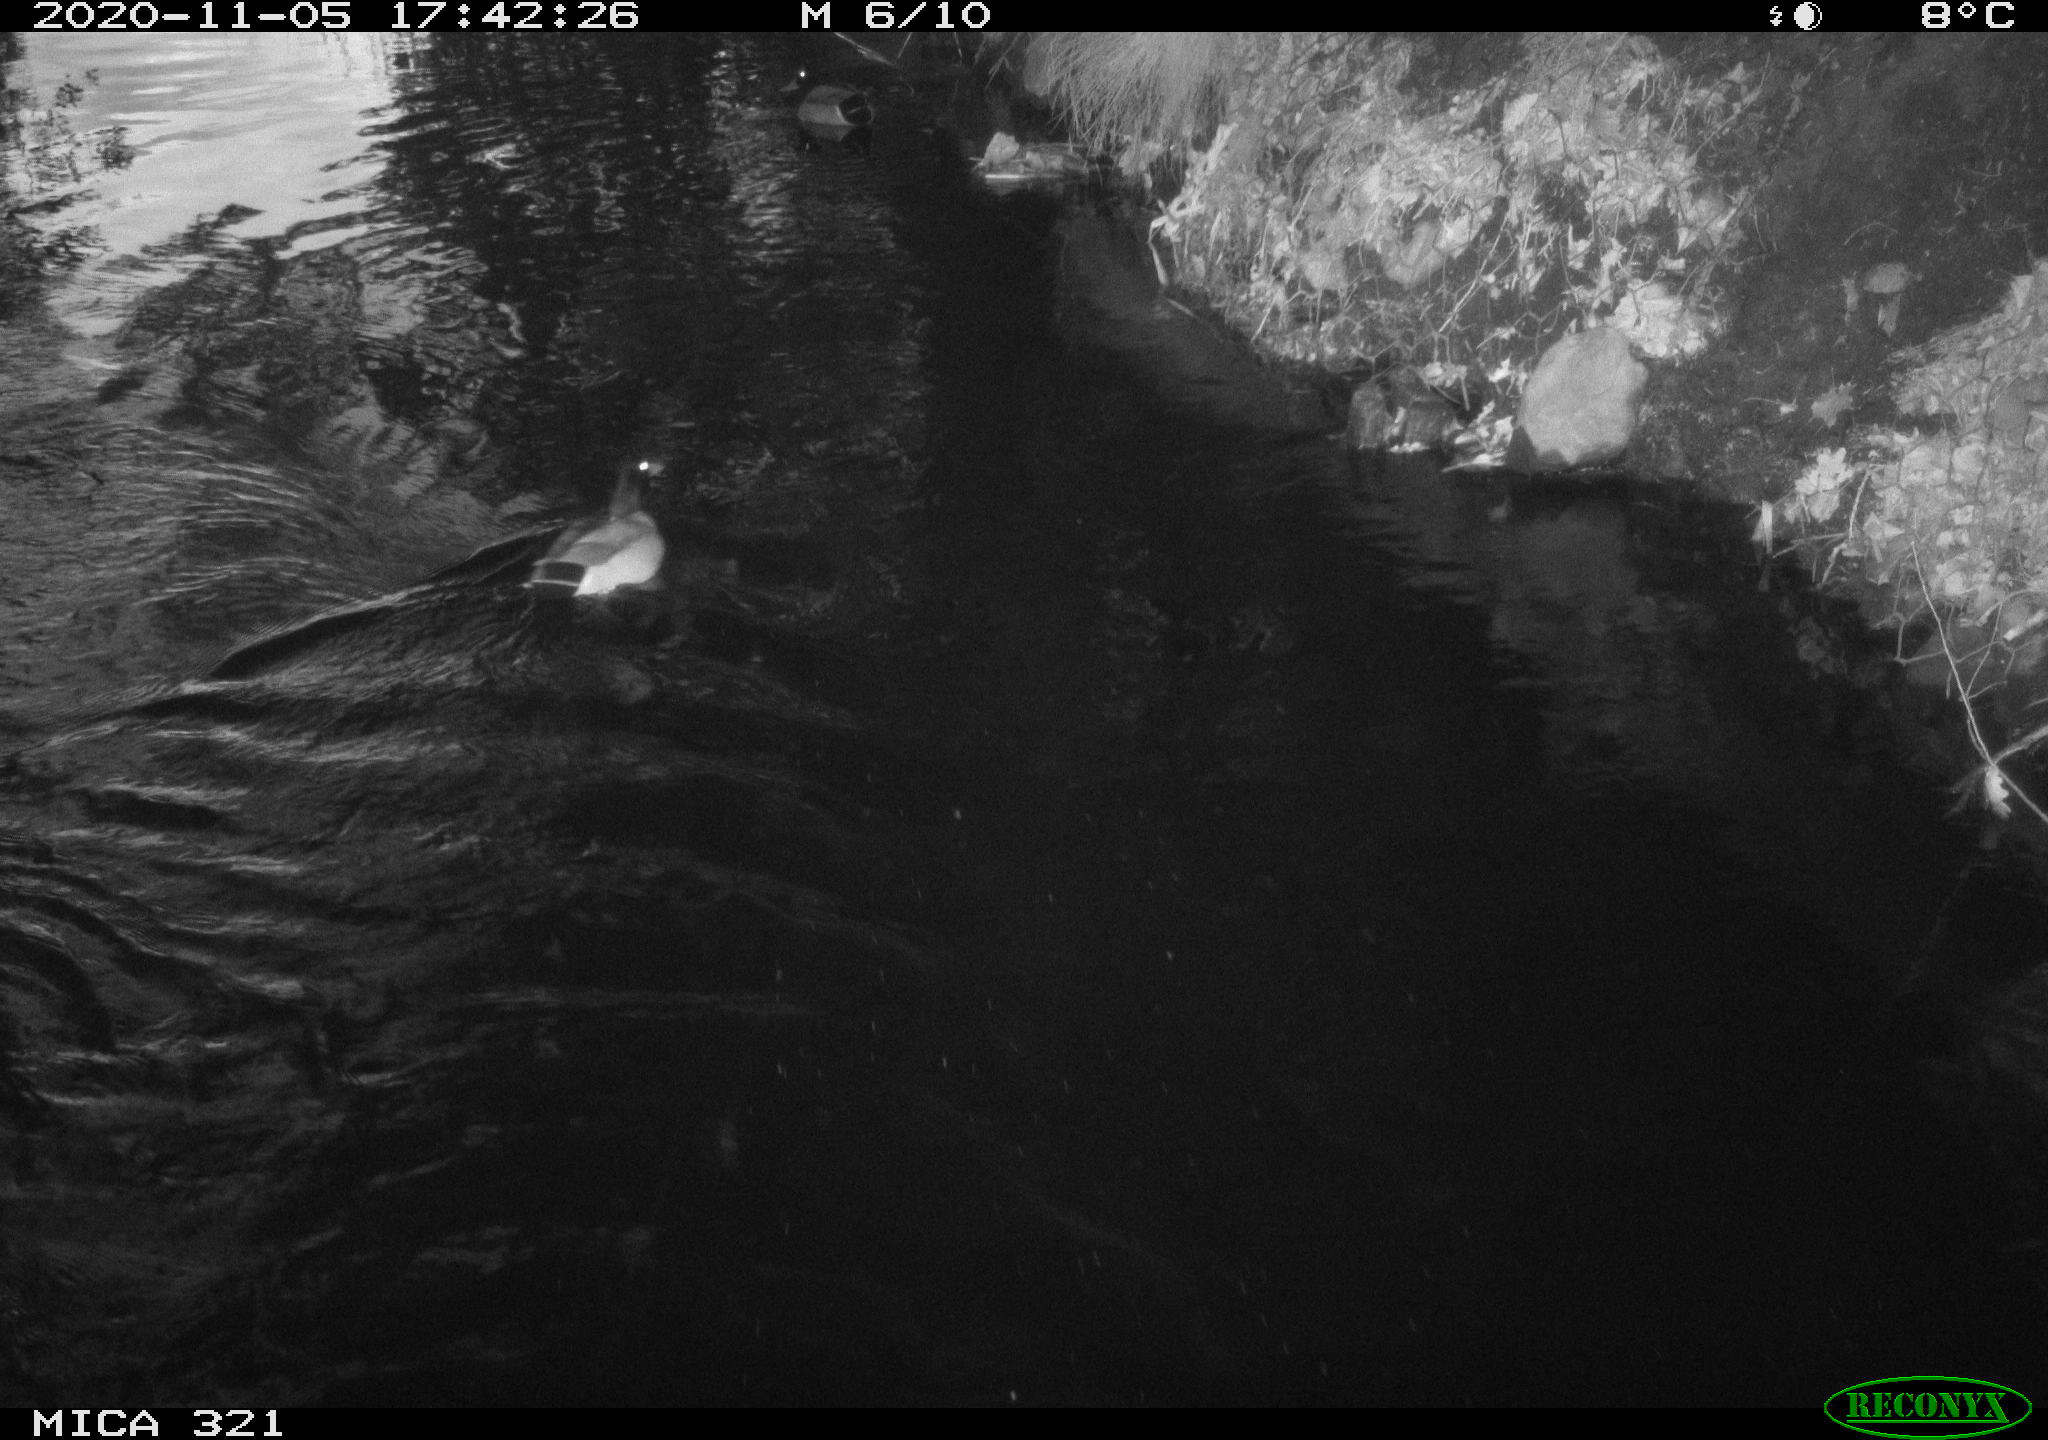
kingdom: Animalia
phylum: Chordata
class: Aves
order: Anseriformes
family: Anatidae
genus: Anas
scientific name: Anas platyrhynchos
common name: Mallard
